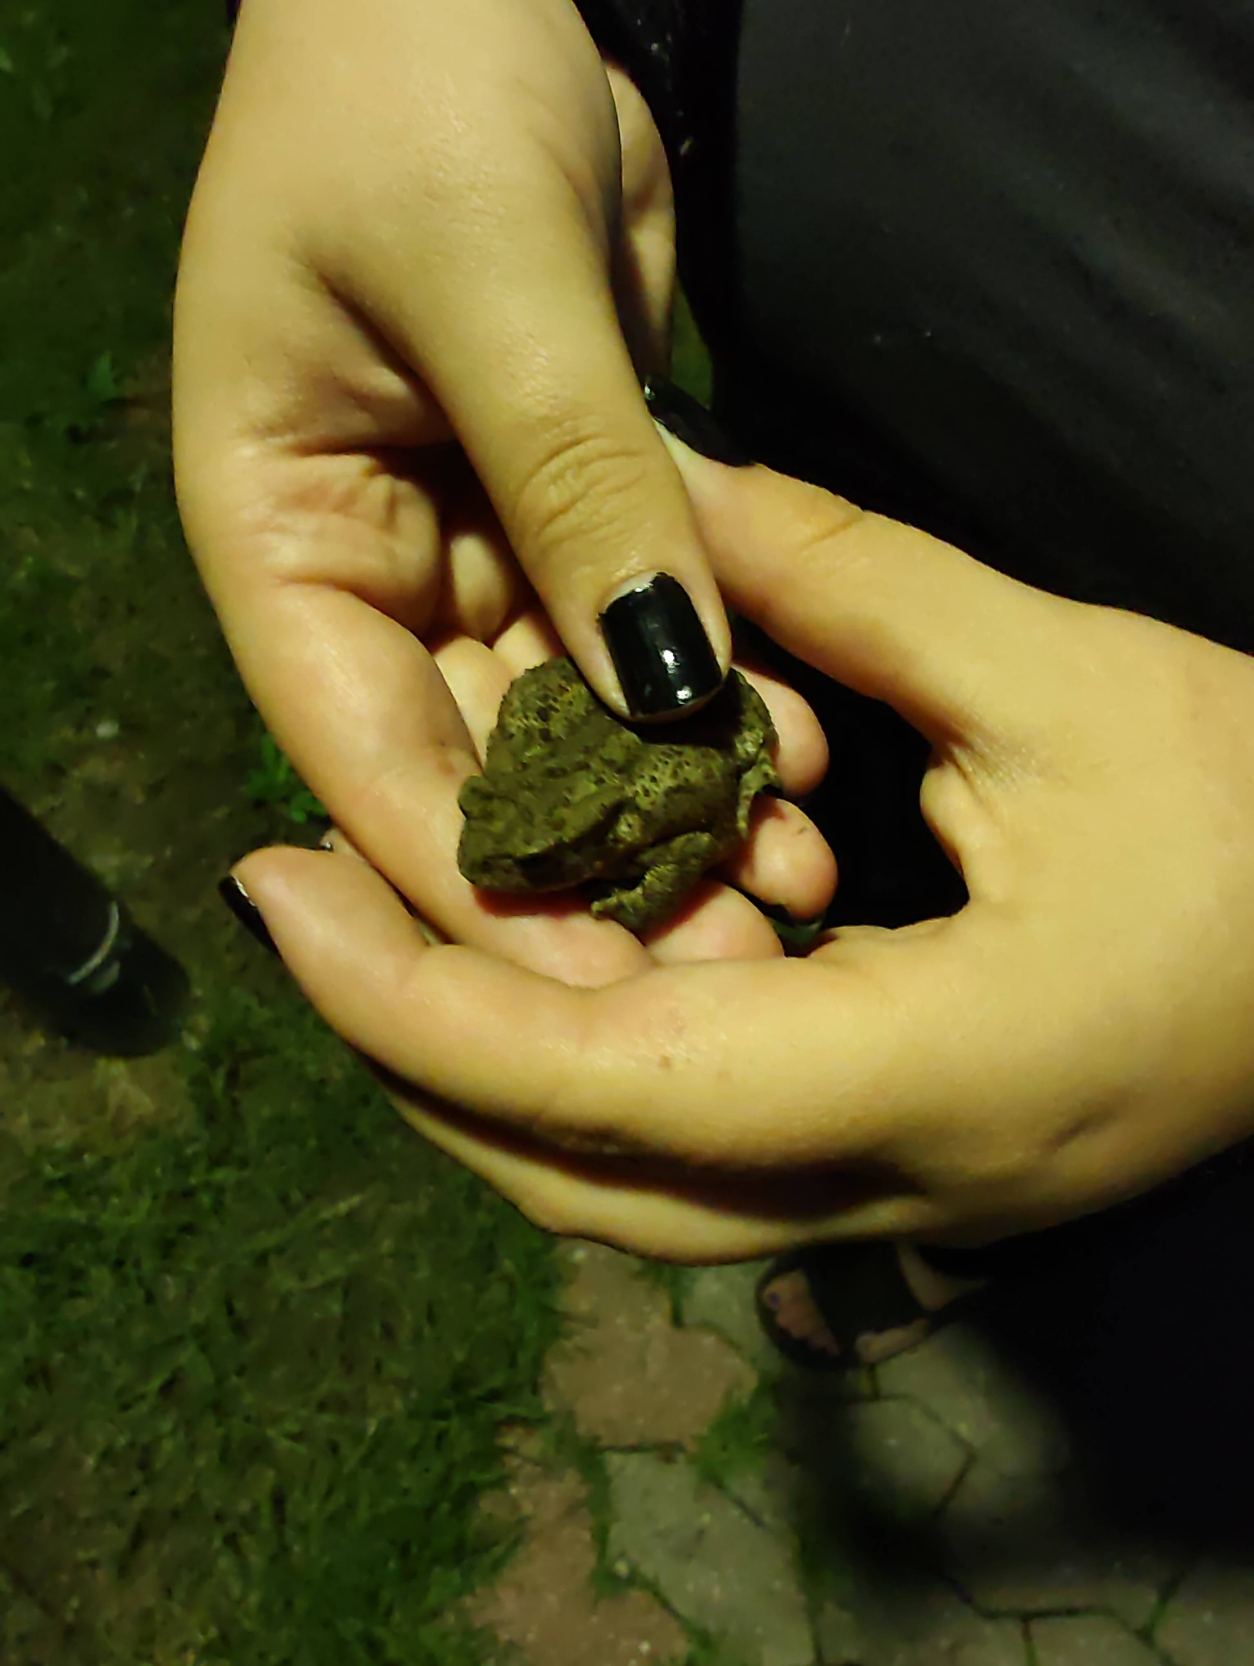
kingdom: Animalia
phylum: Chordata
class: Amphibia
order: Anura
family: Bufonidae
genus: Bufo
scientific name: Bufo bufo
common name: Skrubtudse
